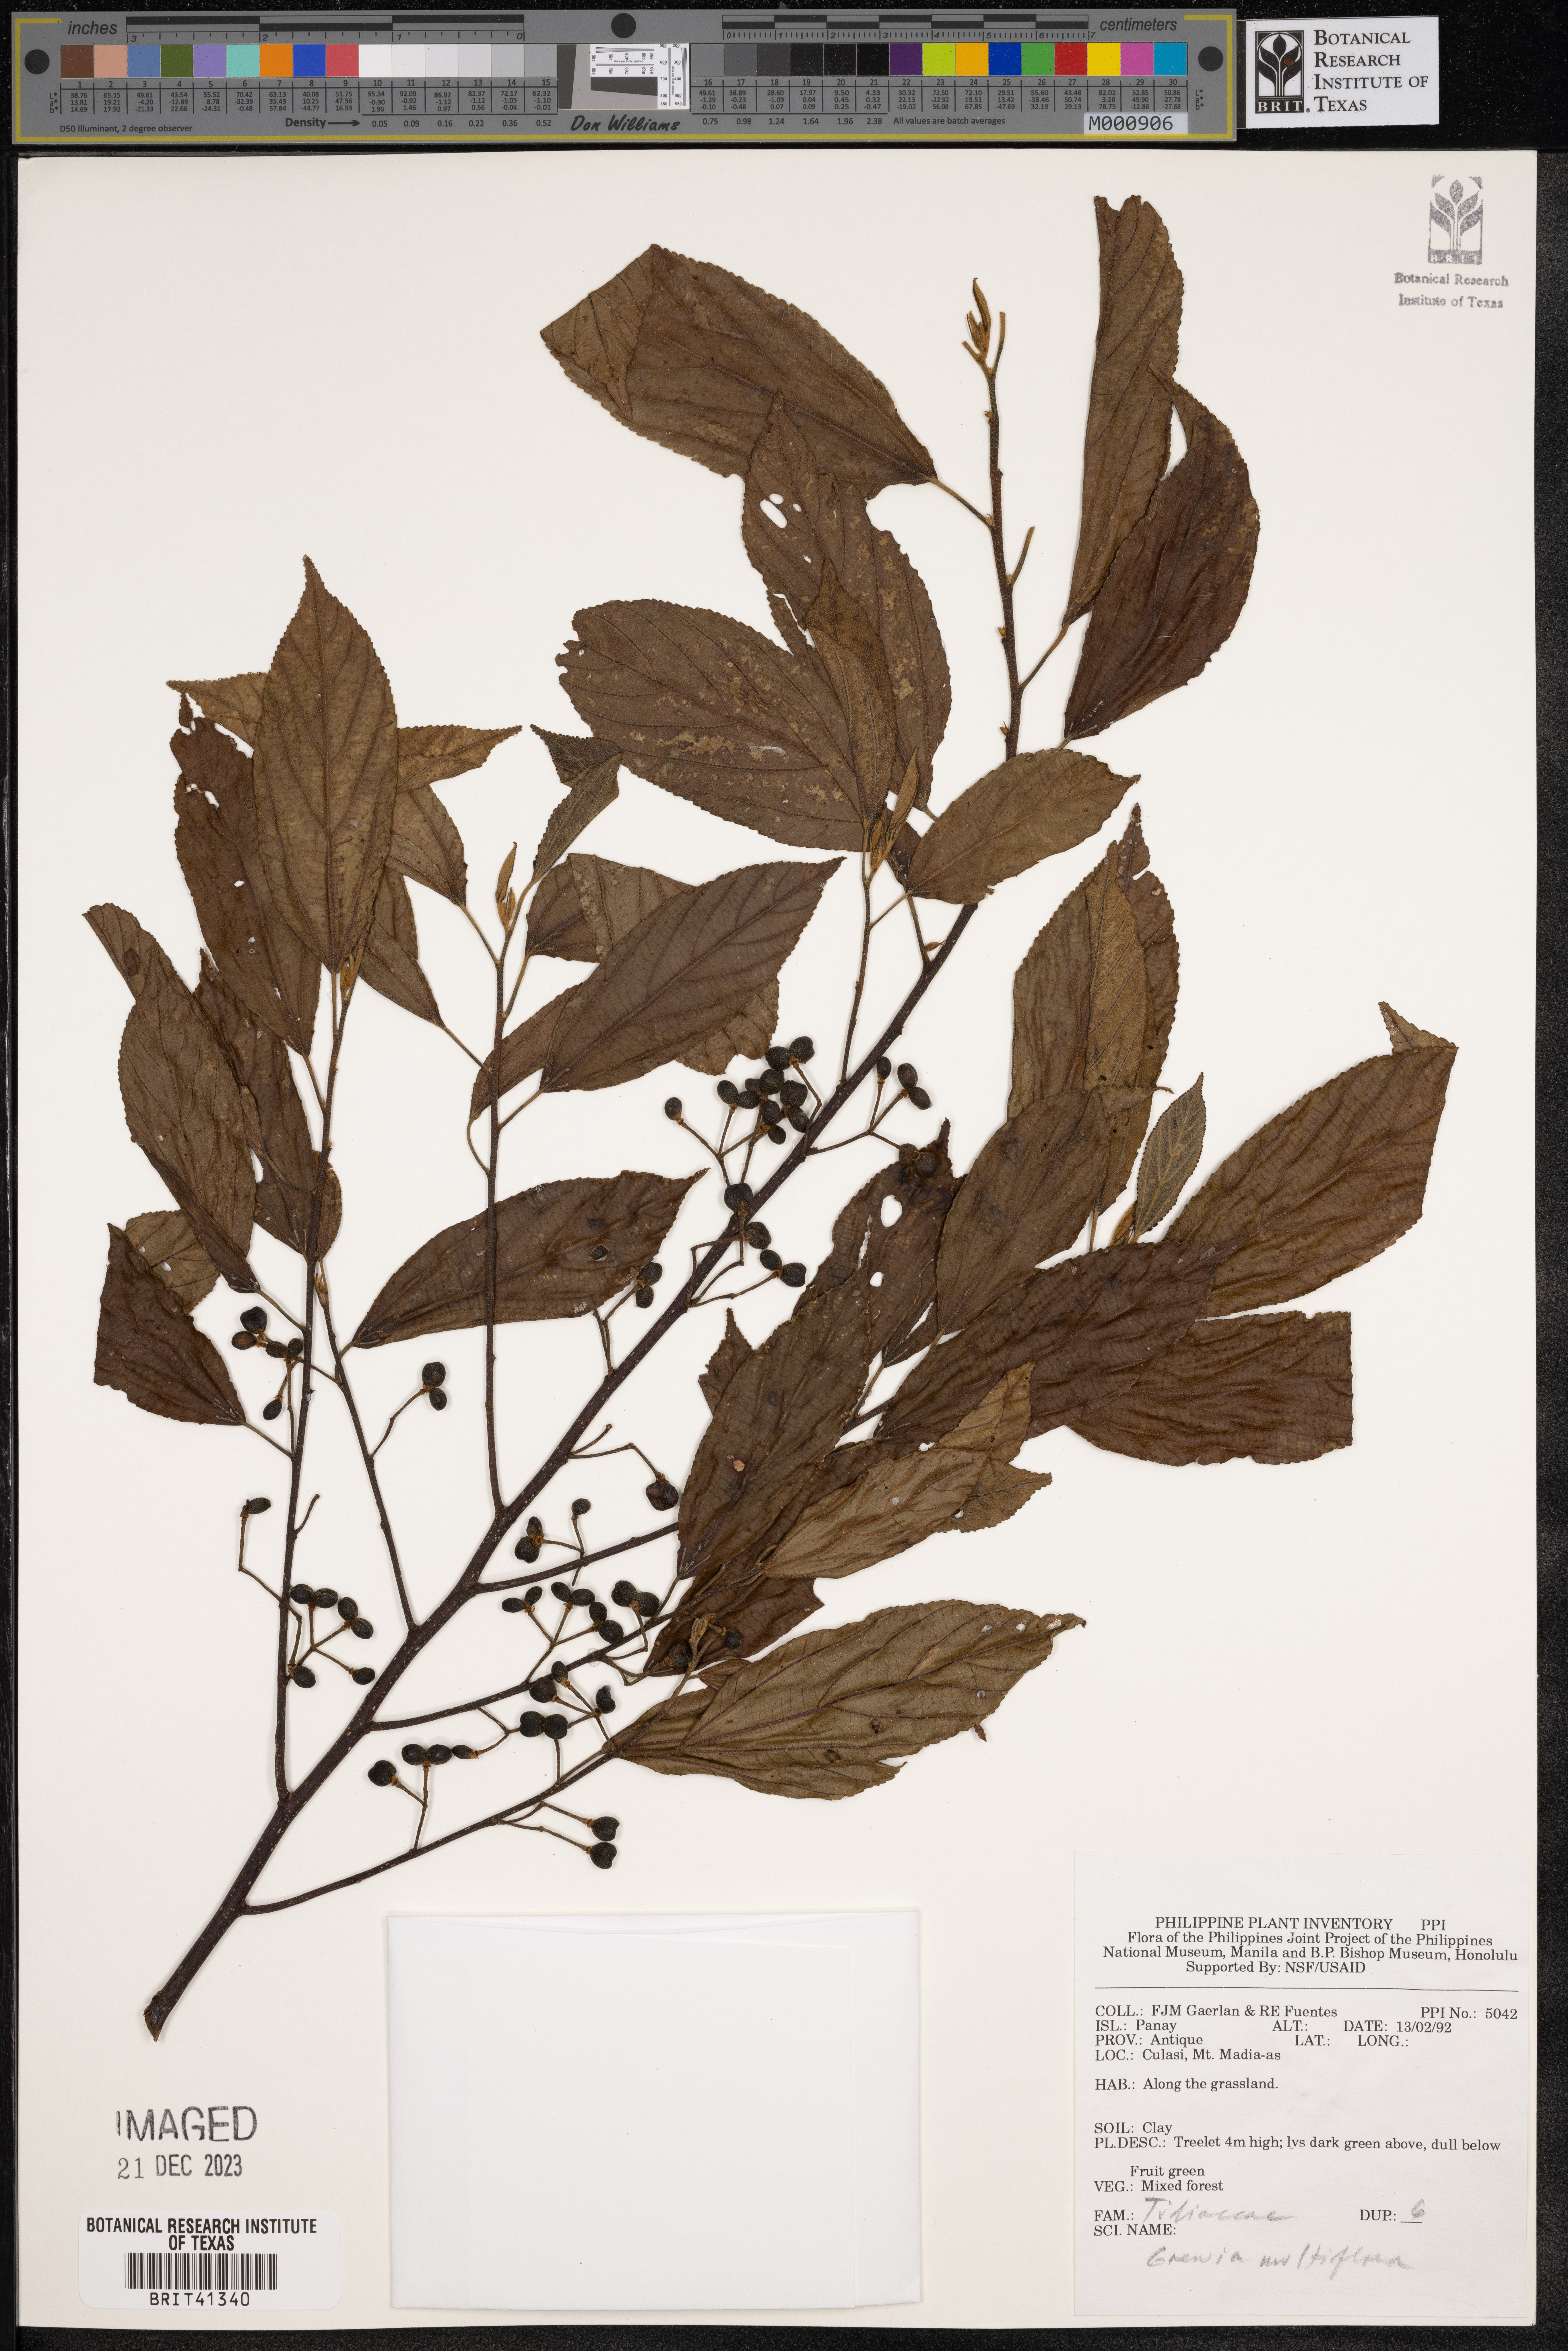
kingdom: Plantae
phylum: Tracheophyta
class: Magnoliopsida
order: Malvales
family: Malvaceae
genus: Grewia
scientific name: Grewia multiflora
